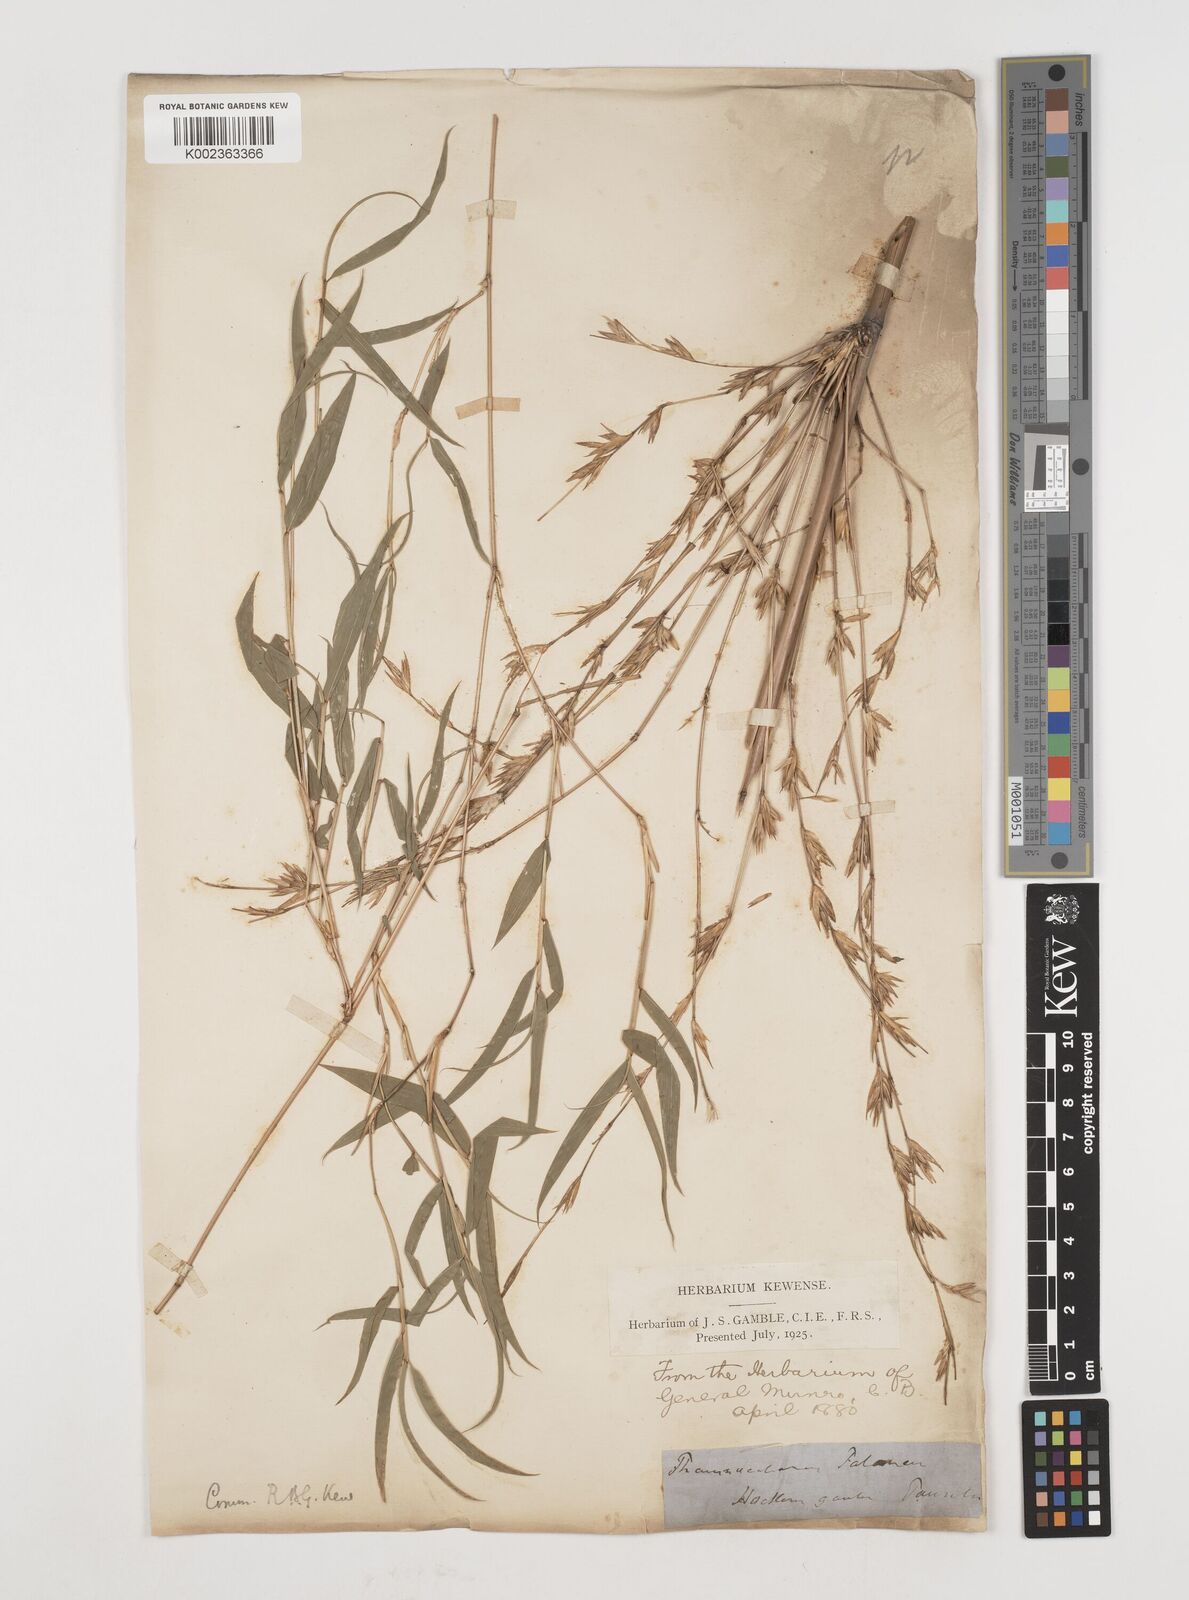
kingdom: Plantae
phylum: Tracheophyta
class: Liliopsida
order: Poales
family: Poaceae
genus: Himalayacalamus
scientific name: Himalayacalamus falconeri
